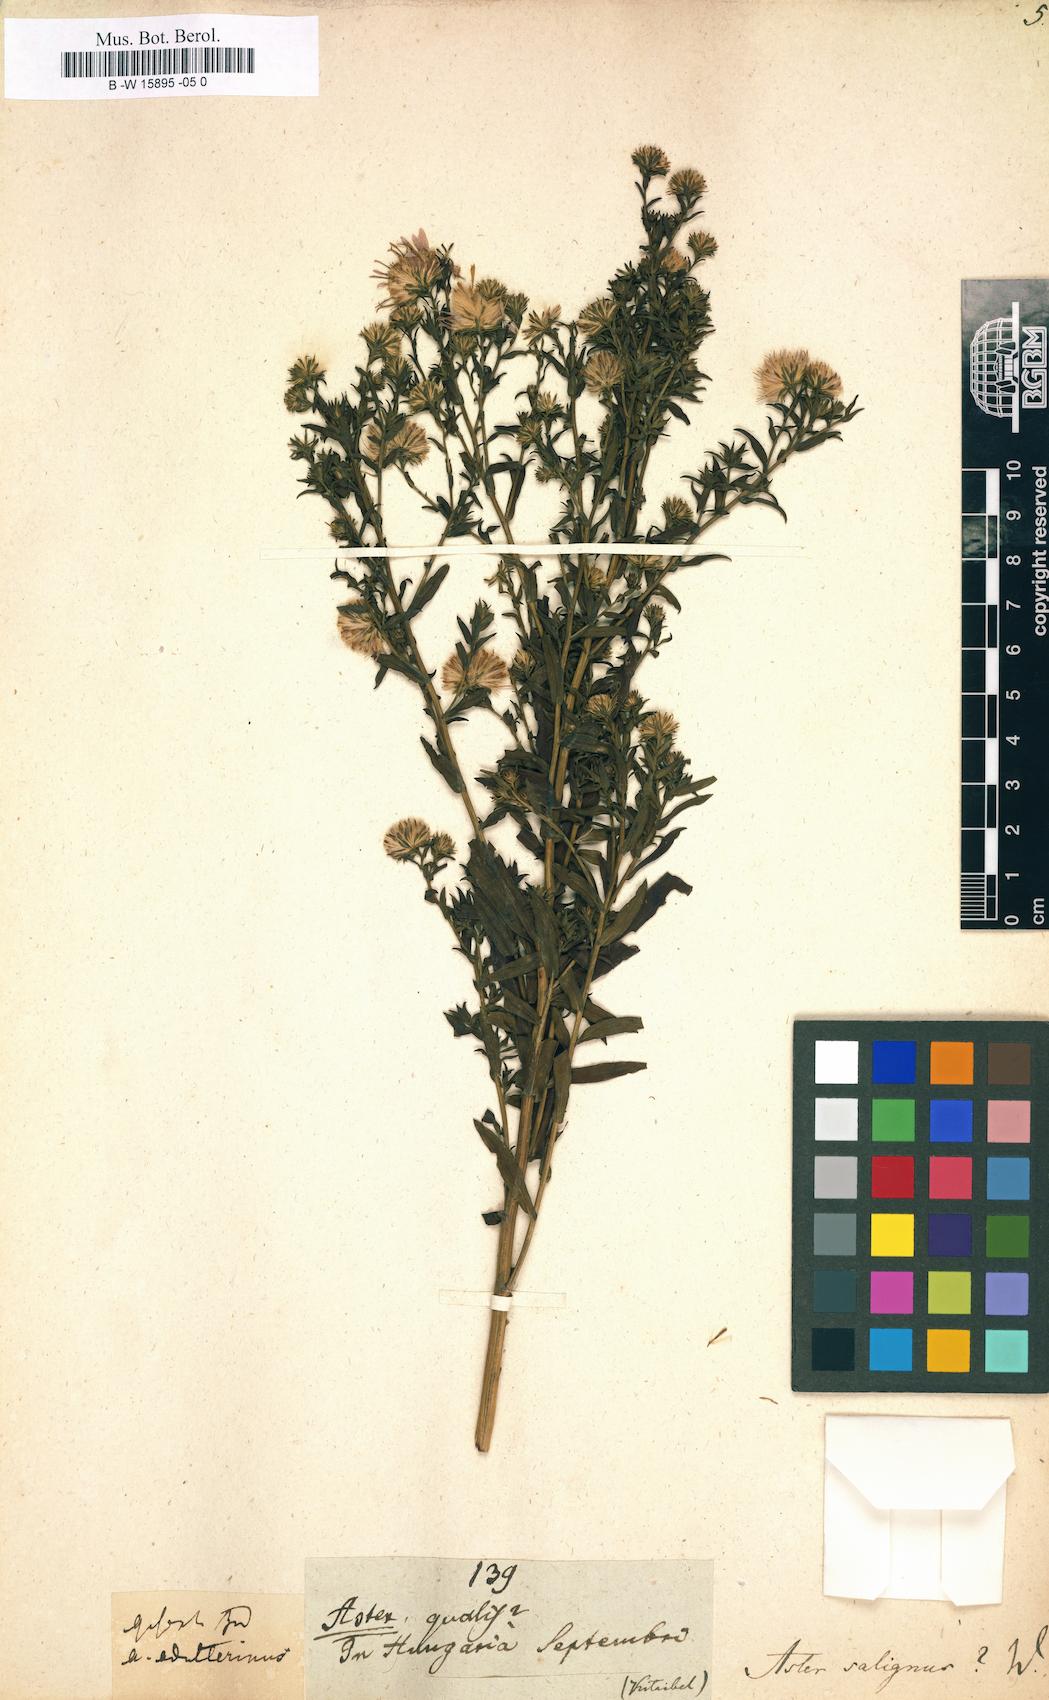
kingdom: Plantae
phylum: Tracheophyta
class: Magnoliopsida
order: Asterales
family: Asteraceae
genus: Symphyotrichum
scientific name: Symphyotrichum salignum
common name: Common michaelmas daisy
